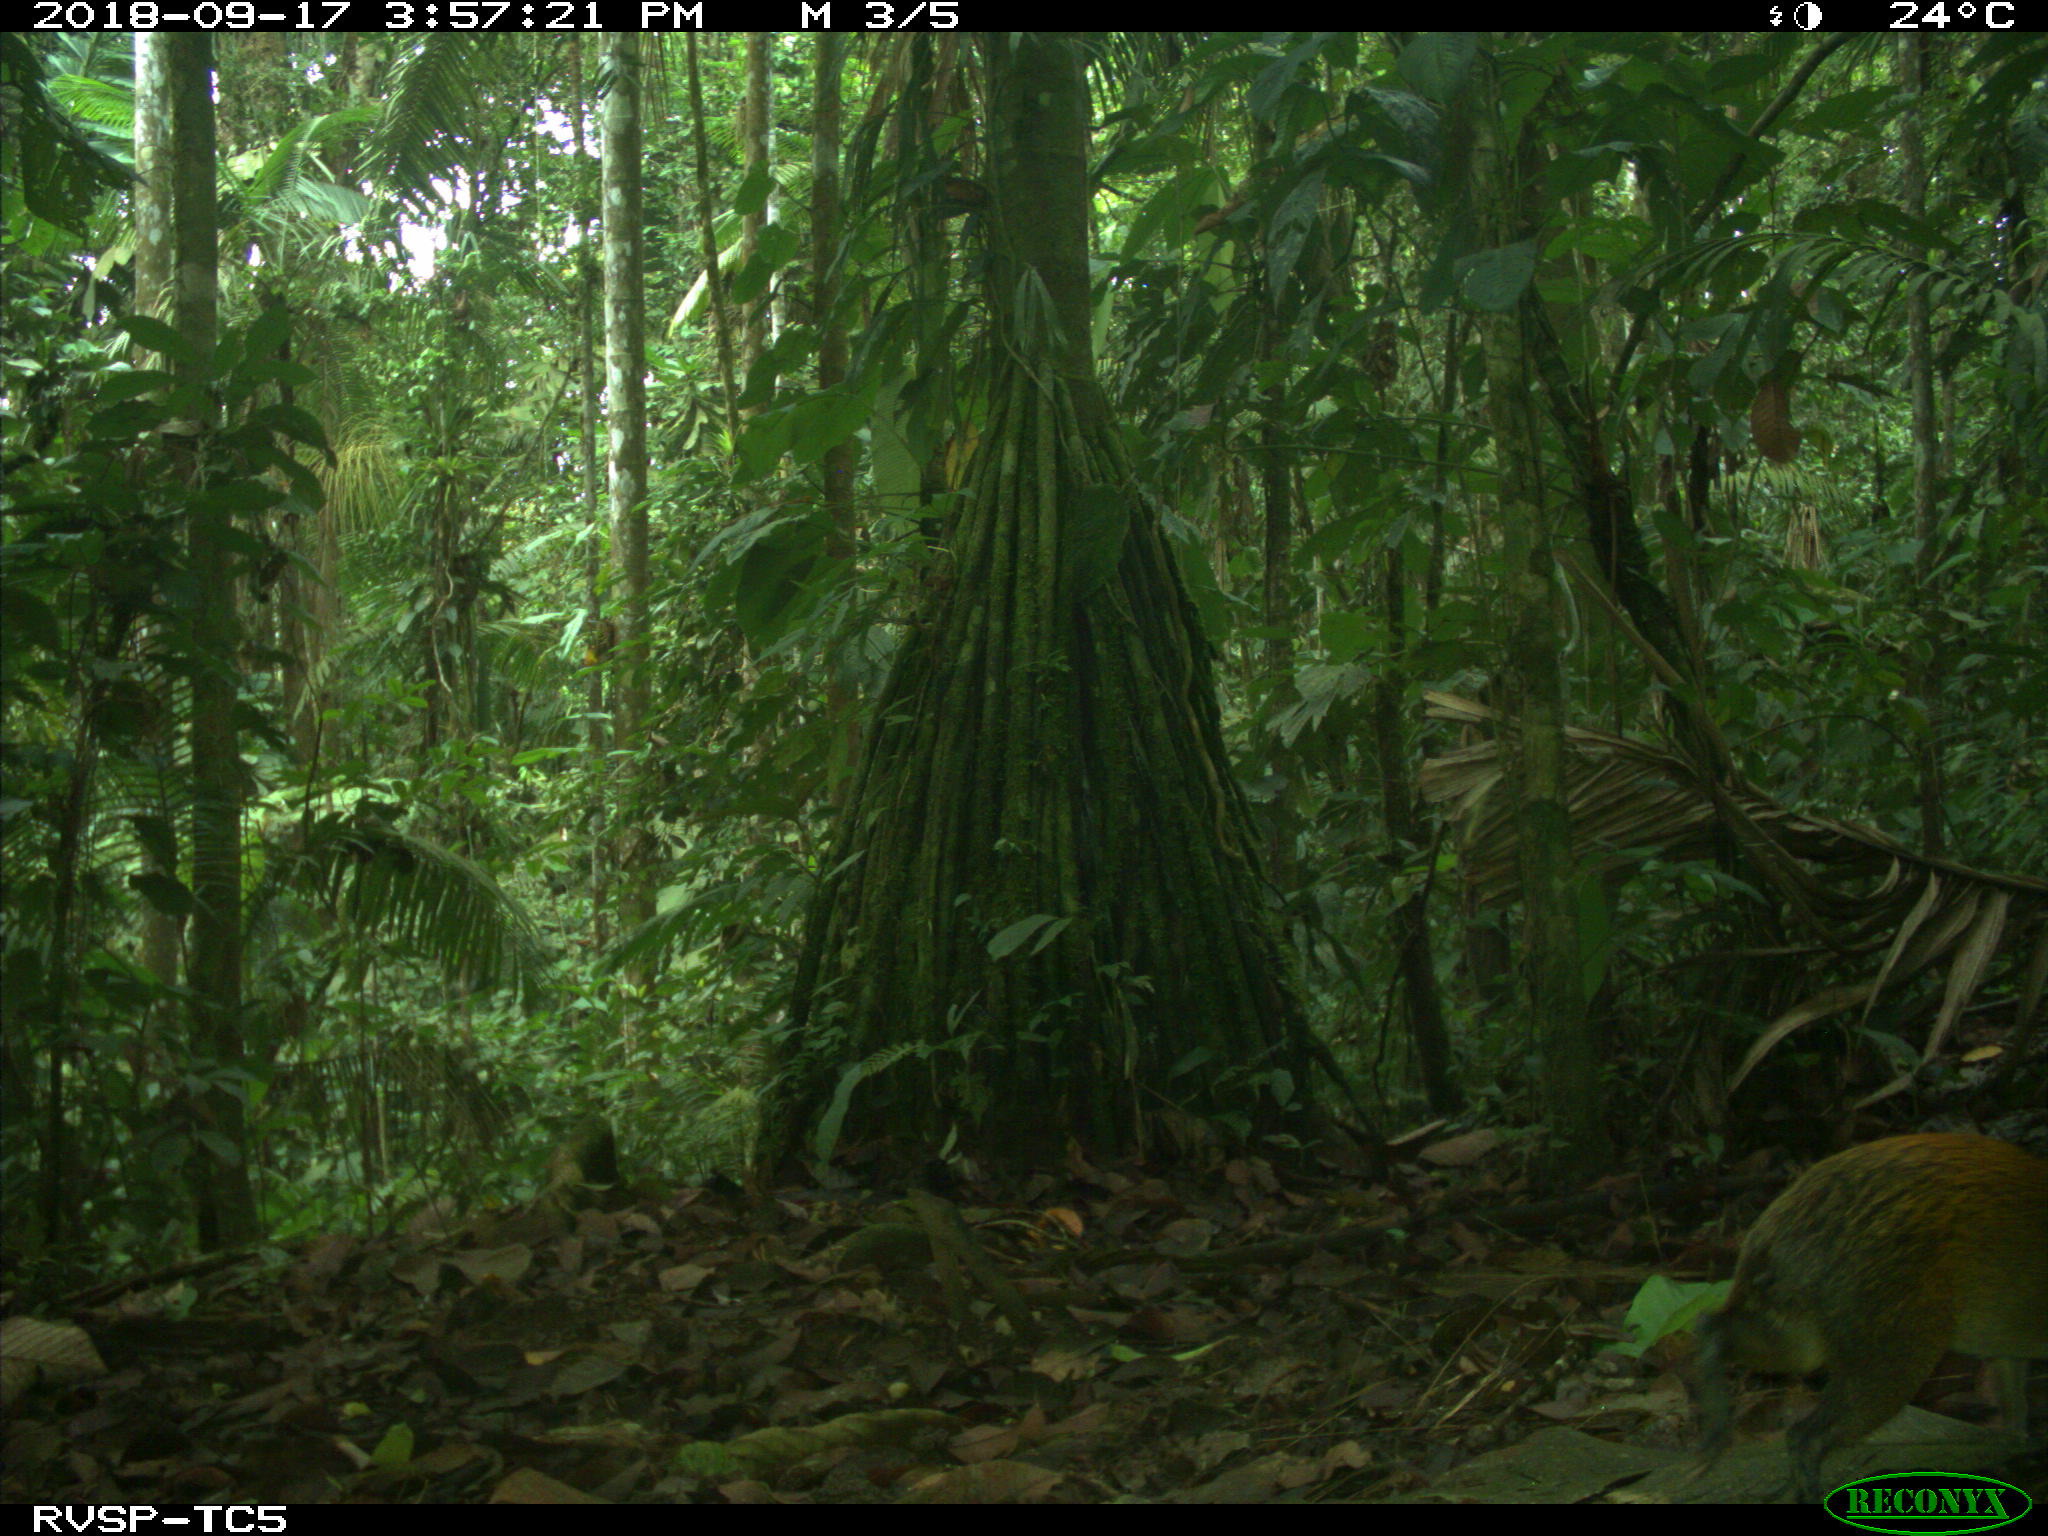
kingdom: Animalia
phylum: Chordata
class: Mammalia
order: Rodentia
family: Dasyproctidae
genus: Dasyprocta
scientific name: Dasyprocta punctata
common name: Central american agouti
